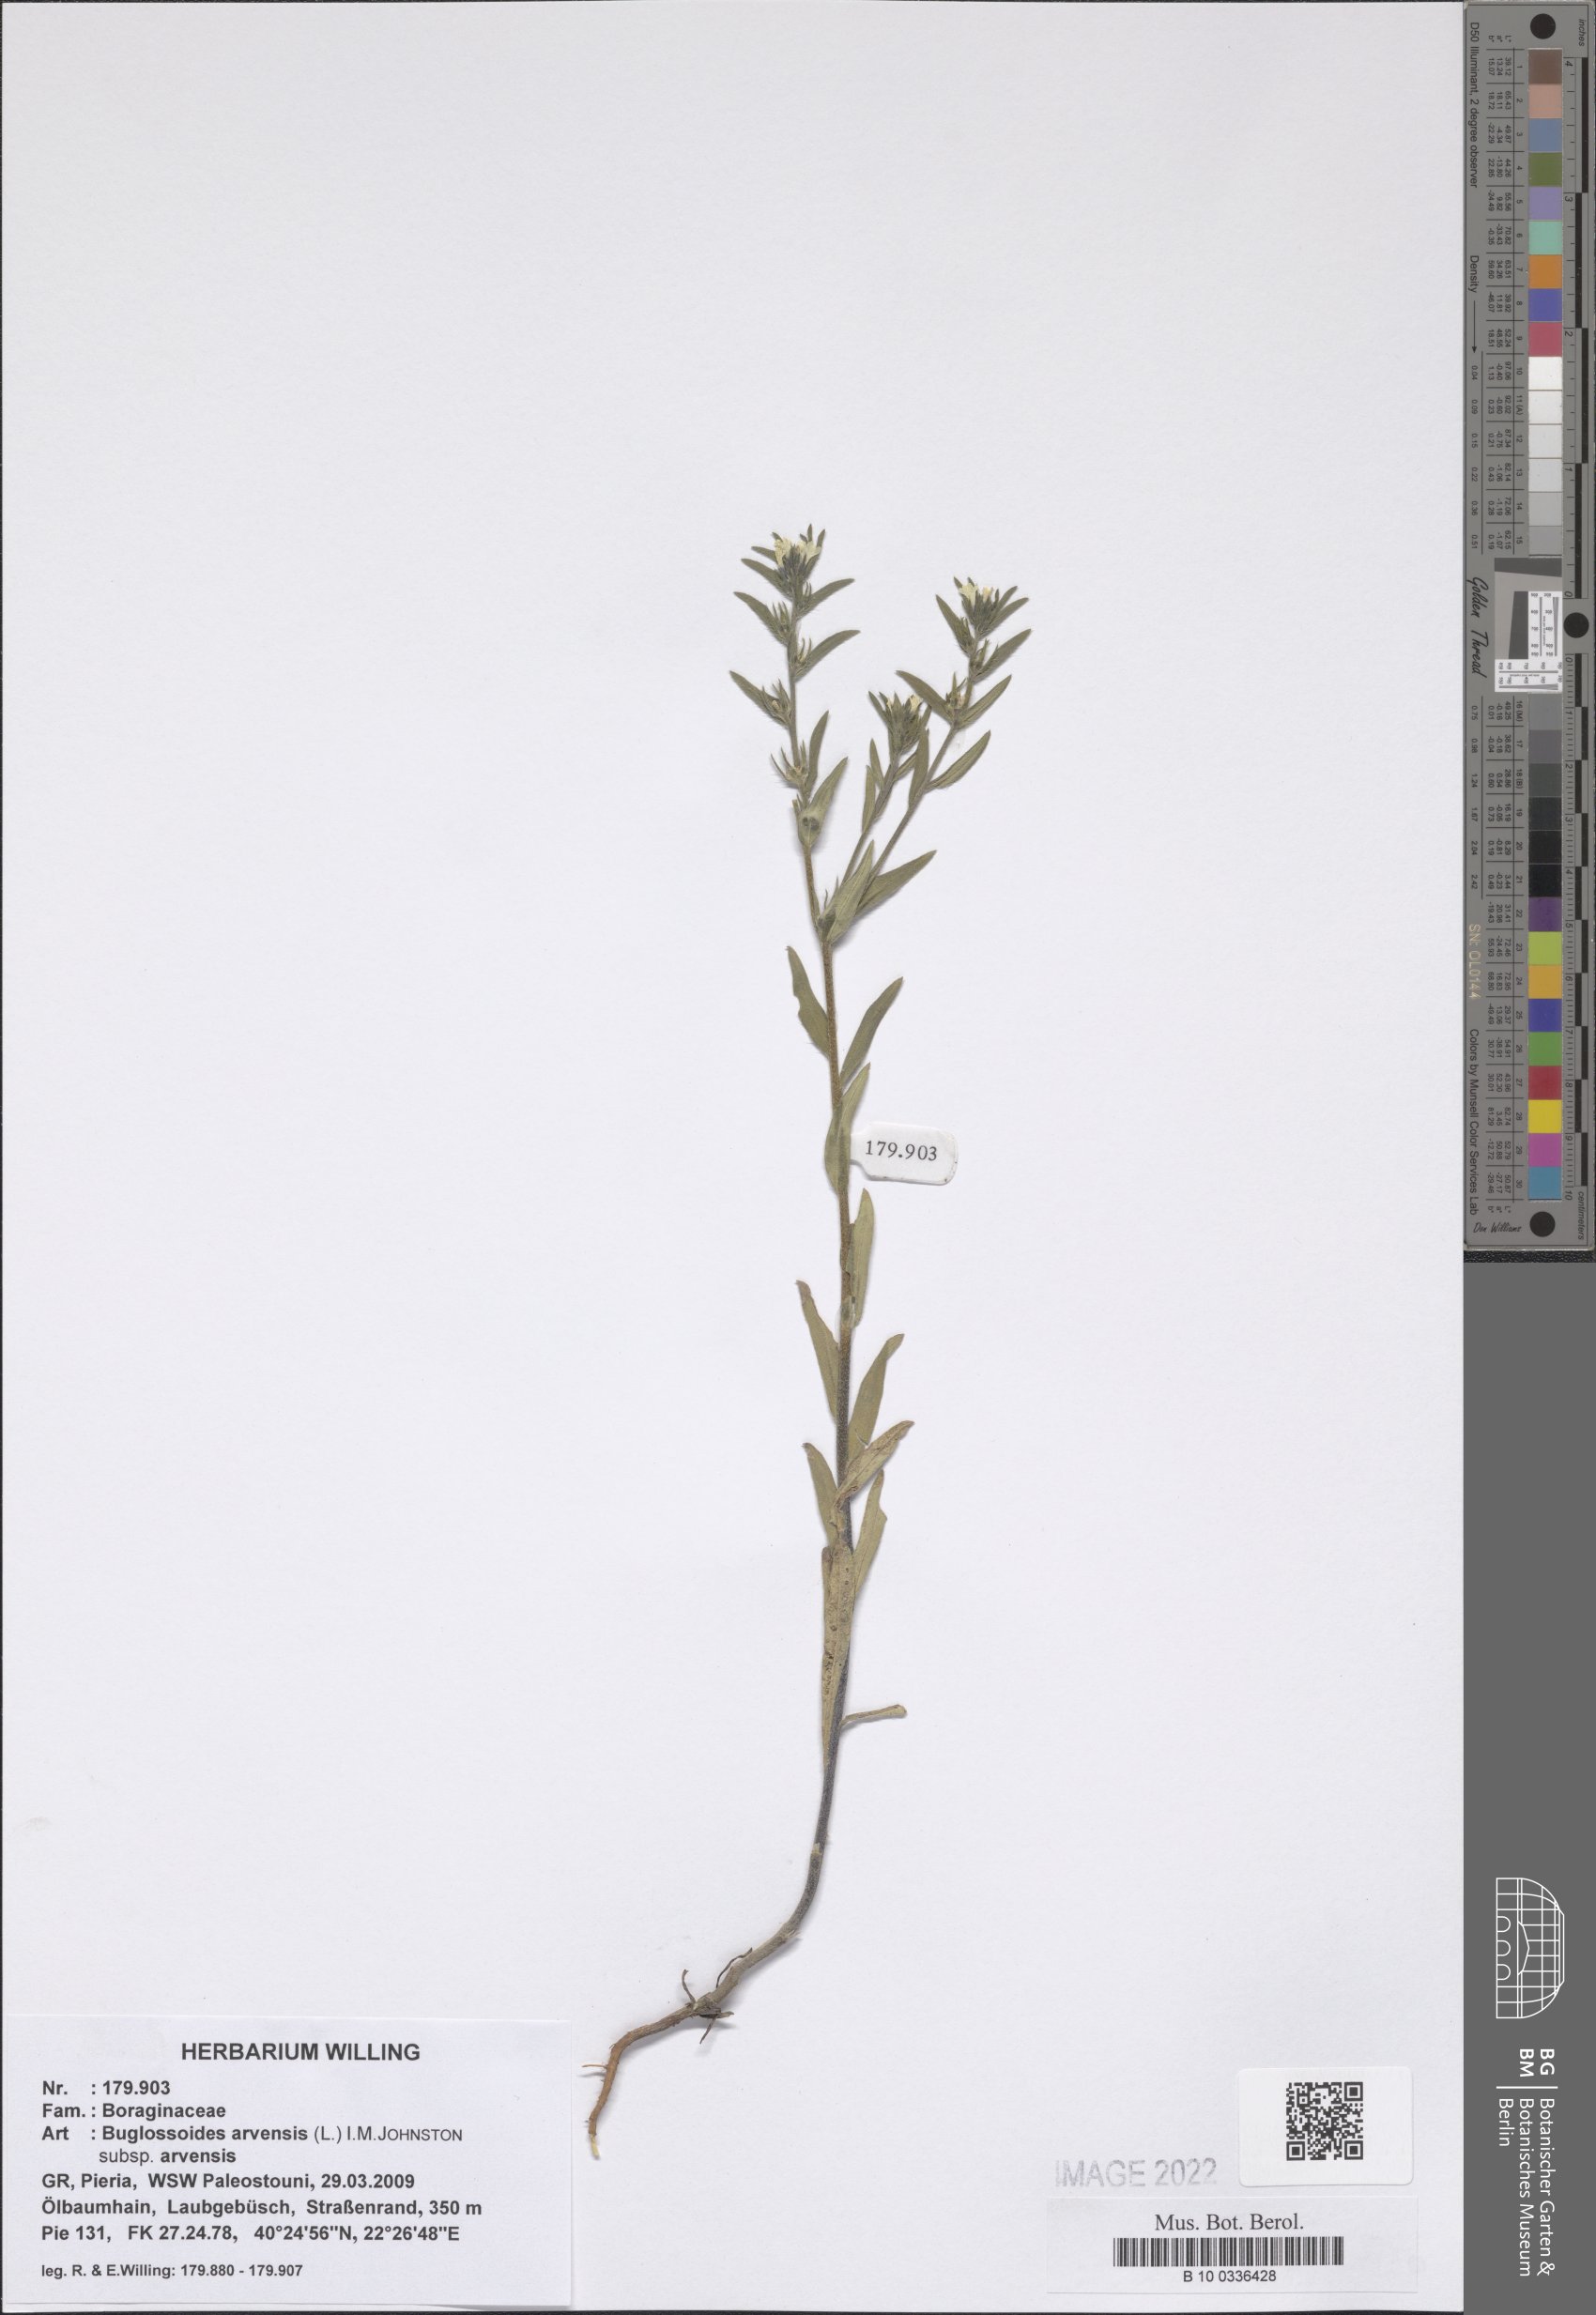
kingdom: Plantae
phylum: Tracheophyta
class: Magnoliopsida
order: Boraginales
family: Boraginaceae
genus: Buglossoides
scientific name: Buglossoides arvensis
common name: Corn gromwell
